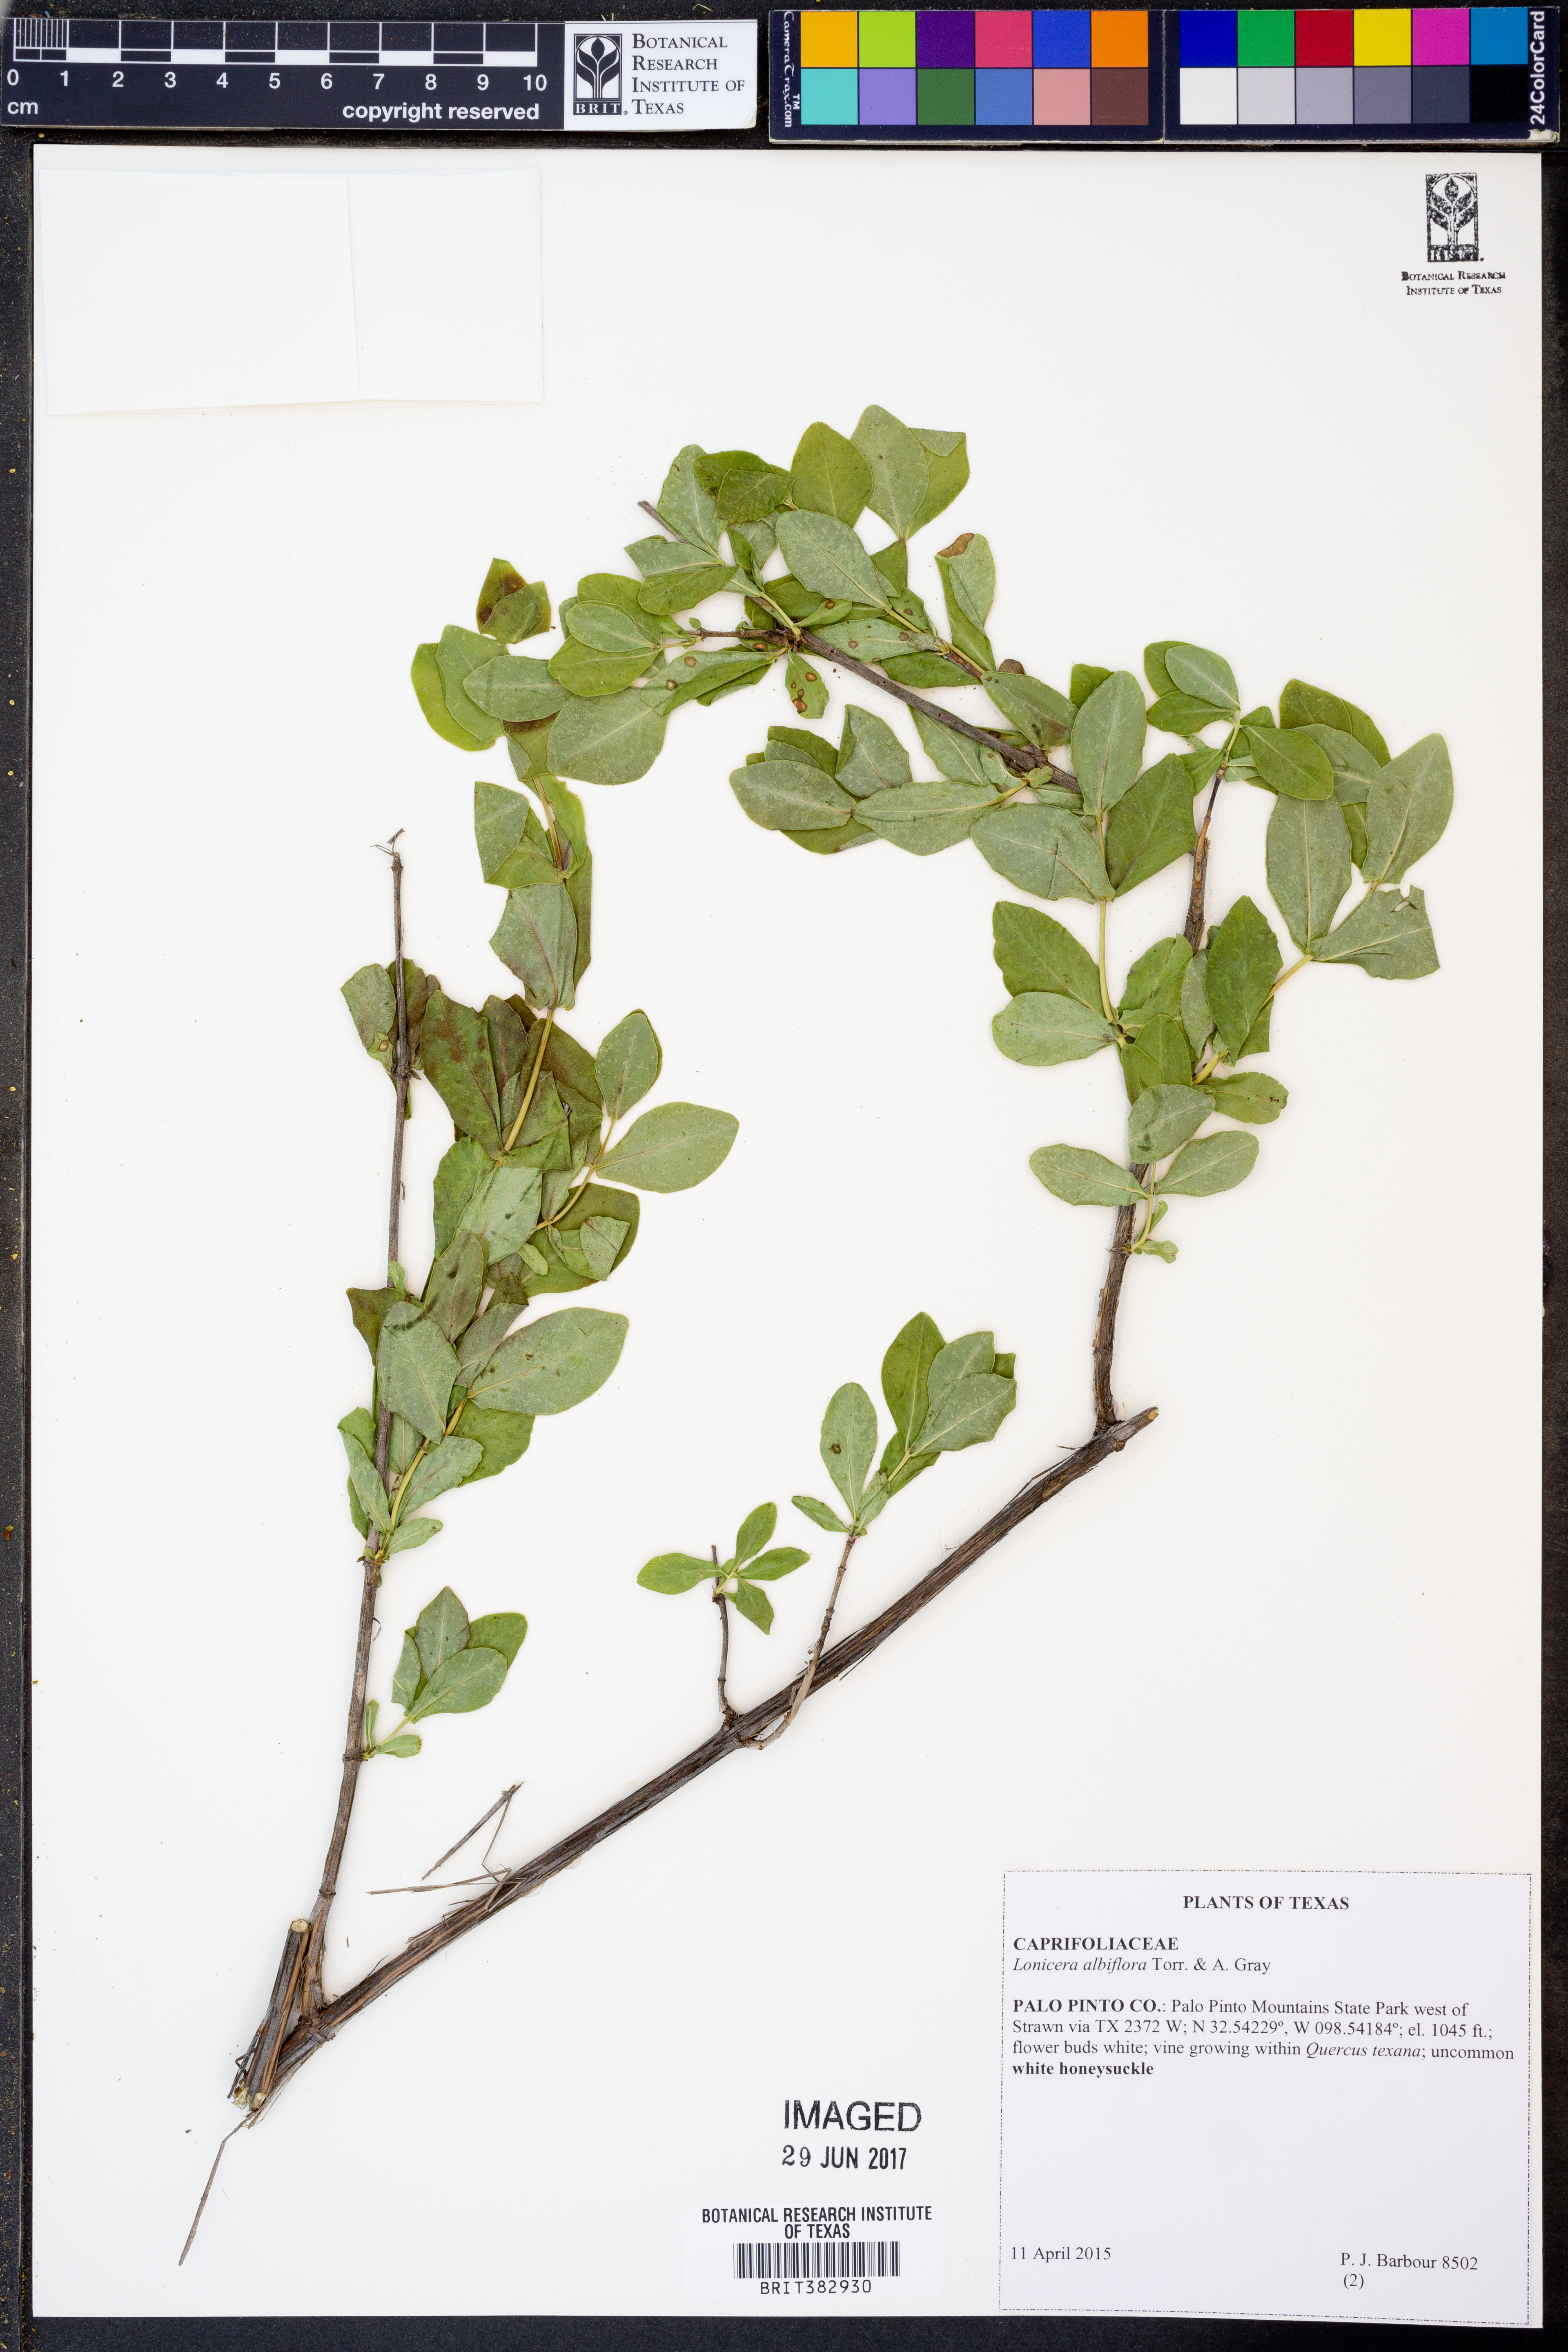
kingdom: Plantae
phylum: Tracheophyta
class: Magnoliopsida
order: Dipsacales
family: Caprifoliaceae
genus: Lonicera
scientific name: Lonicera albiflora
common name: White honeysuckle
